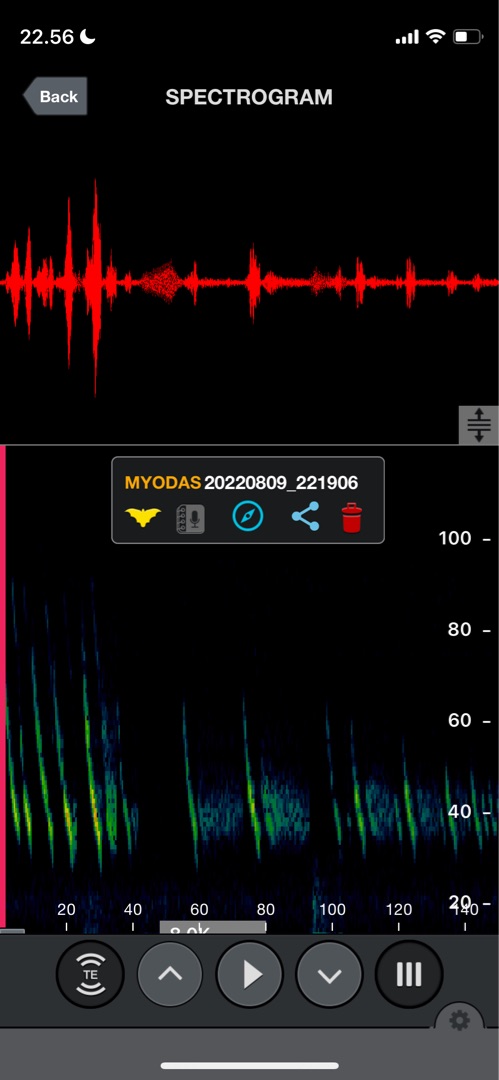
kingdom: Animalia
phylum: Chordata
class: Mammalia
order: Chiroptera
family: Vespertilionidae
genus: Myotis
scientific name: Myotis dasycneme
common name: Damflagermus
